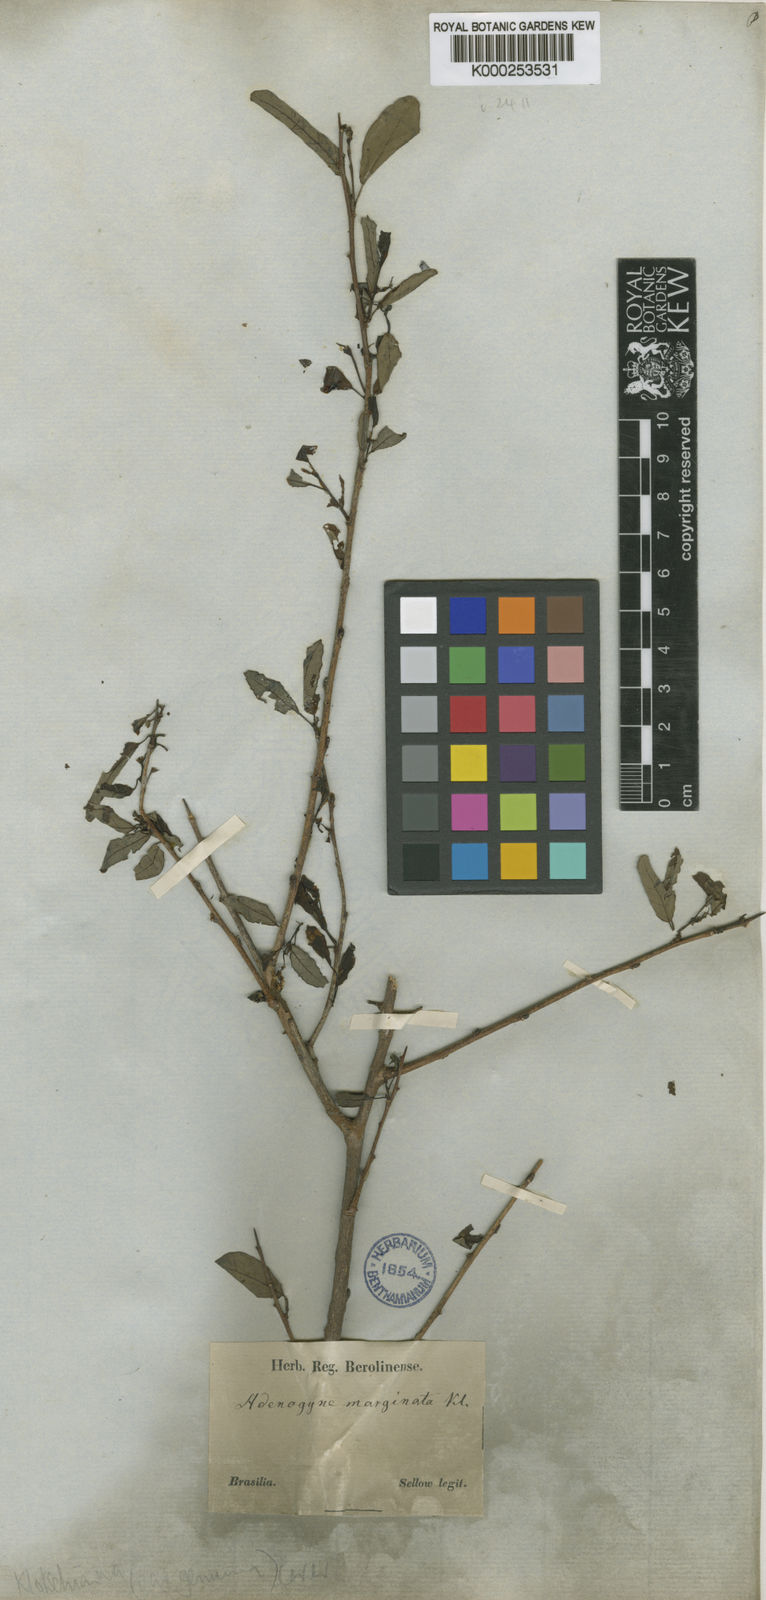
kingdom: Plantae
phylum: Tracheophyta
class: Magnoliopsida
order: Malpighiales
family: Euphorbiaceae
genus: Sebastiania
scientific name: Sebastiania
